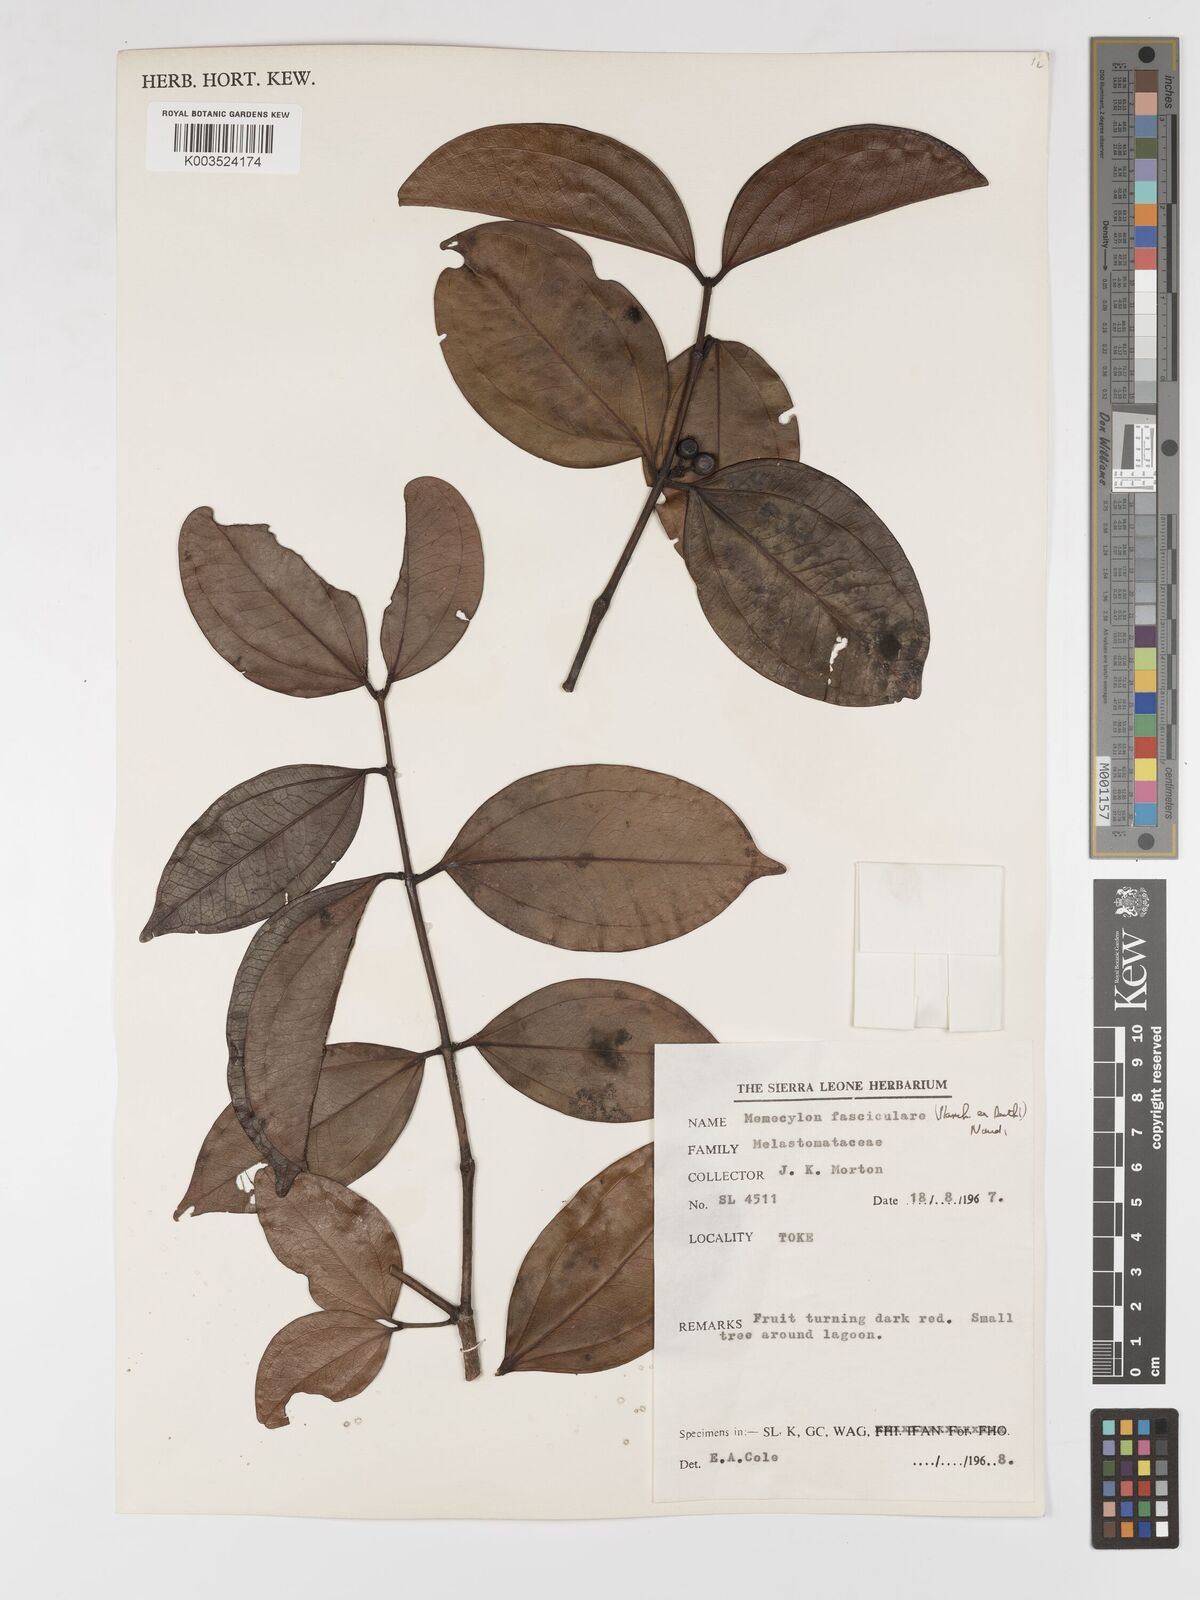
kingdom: Plantae
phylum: Tracheophyta
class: Magnoliopsida
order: Myrtales
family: Melastomataceae
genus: Warneckea
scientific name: Warneckea fascicularis
